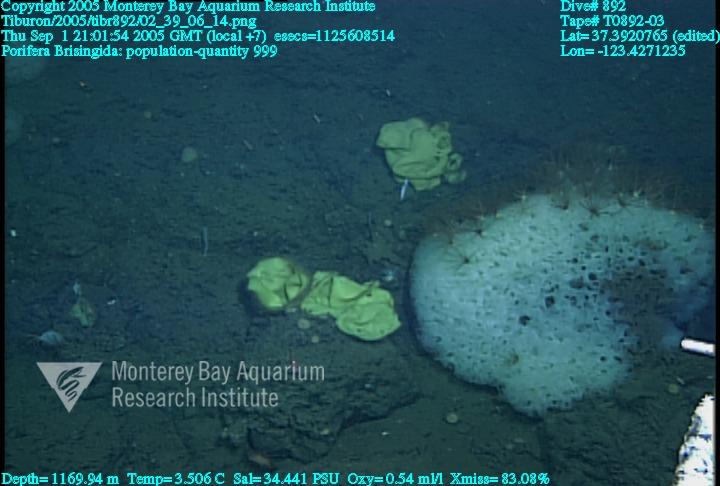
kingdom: Animalia
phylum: Porifera
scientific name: Porifera
